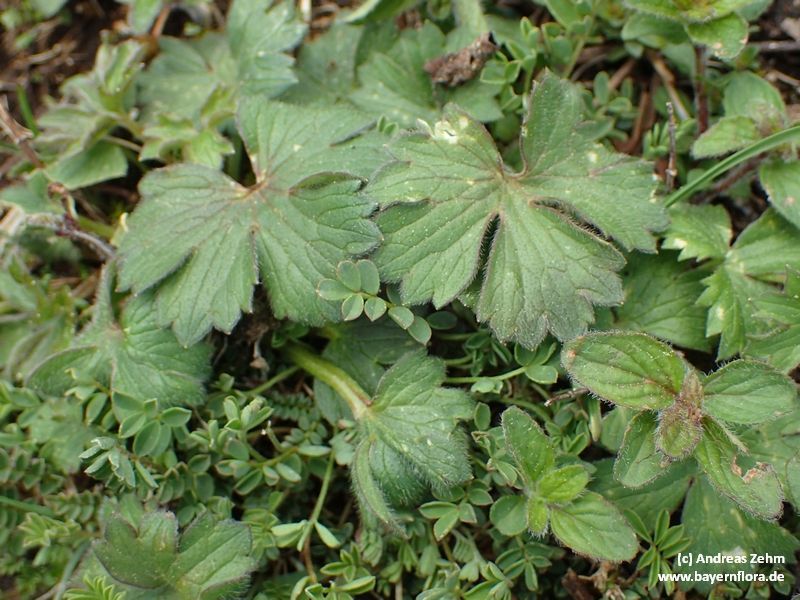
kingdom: Plantae
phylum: Tracheophyta
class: Magnoliopsida
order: Ranunculales
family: Ranunculaceae
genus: Ranunculus
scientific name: Ranunculus breyninus
